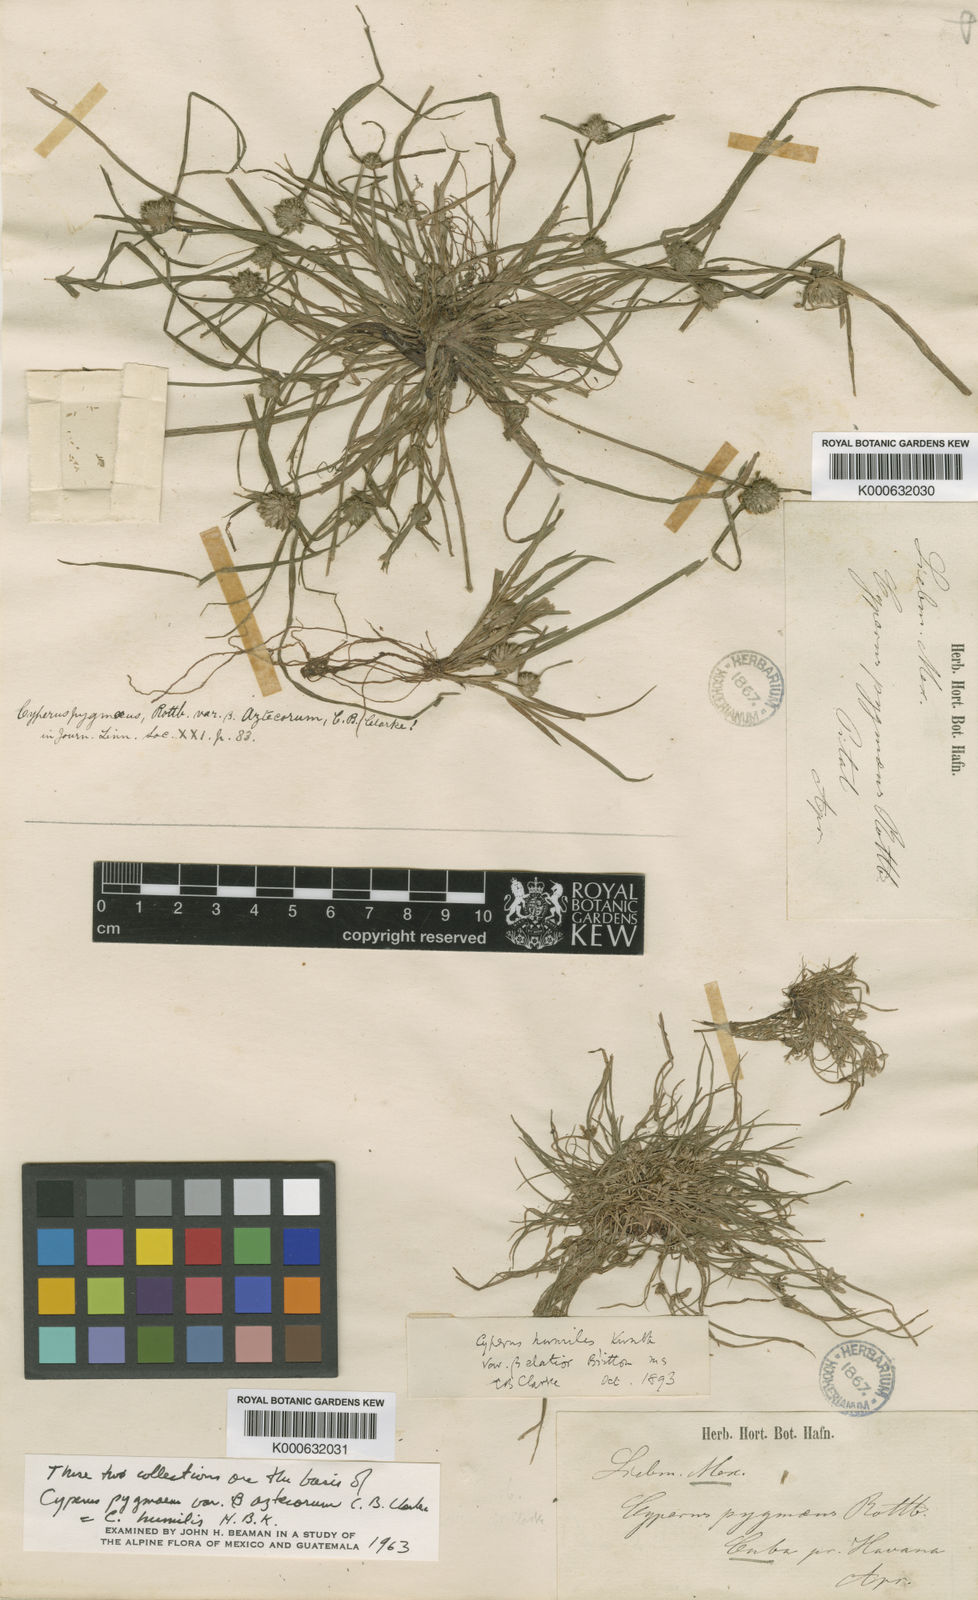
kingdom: Plantae
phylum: Tracheophyta
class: Liliopsida
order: Poales
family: Cyperaceae
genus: Cyperus
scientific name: Cyperus
